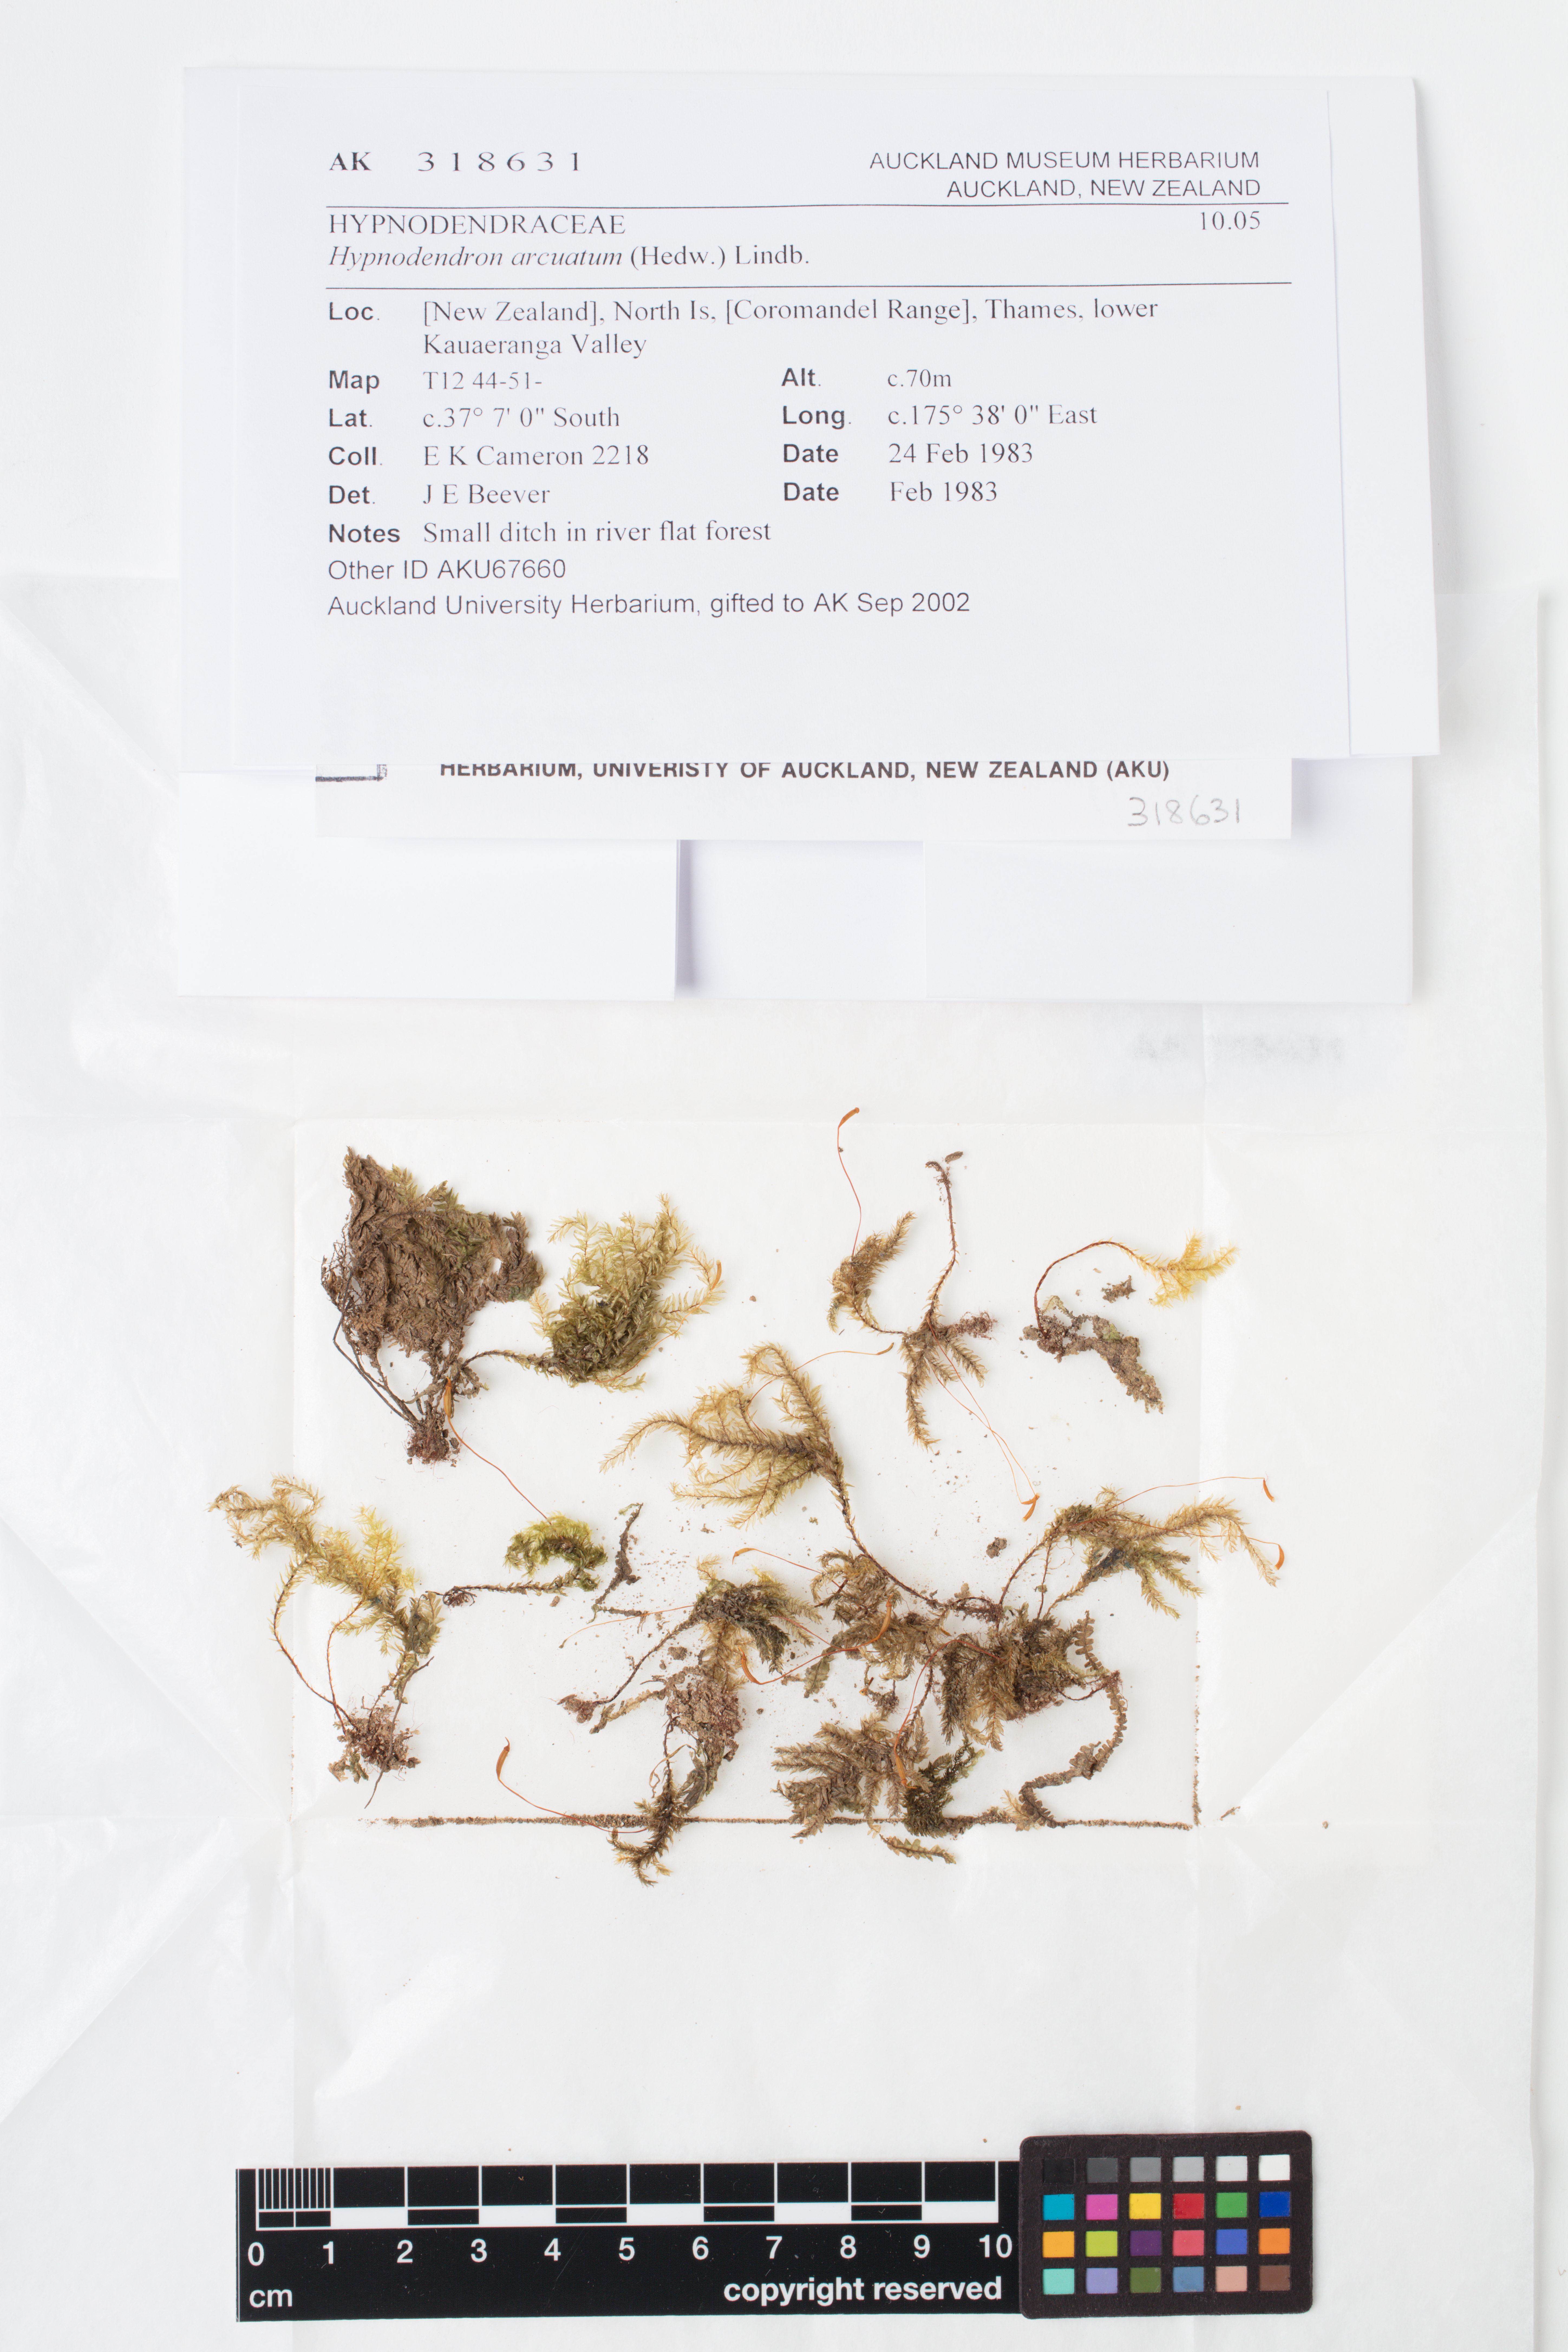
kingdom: Plantae
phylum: Bryophyta
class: Bryopsida
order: Hypnodendrales
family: Spiridentaceae
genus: Hypnodendron
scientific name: Hypnodendron arcuatum
